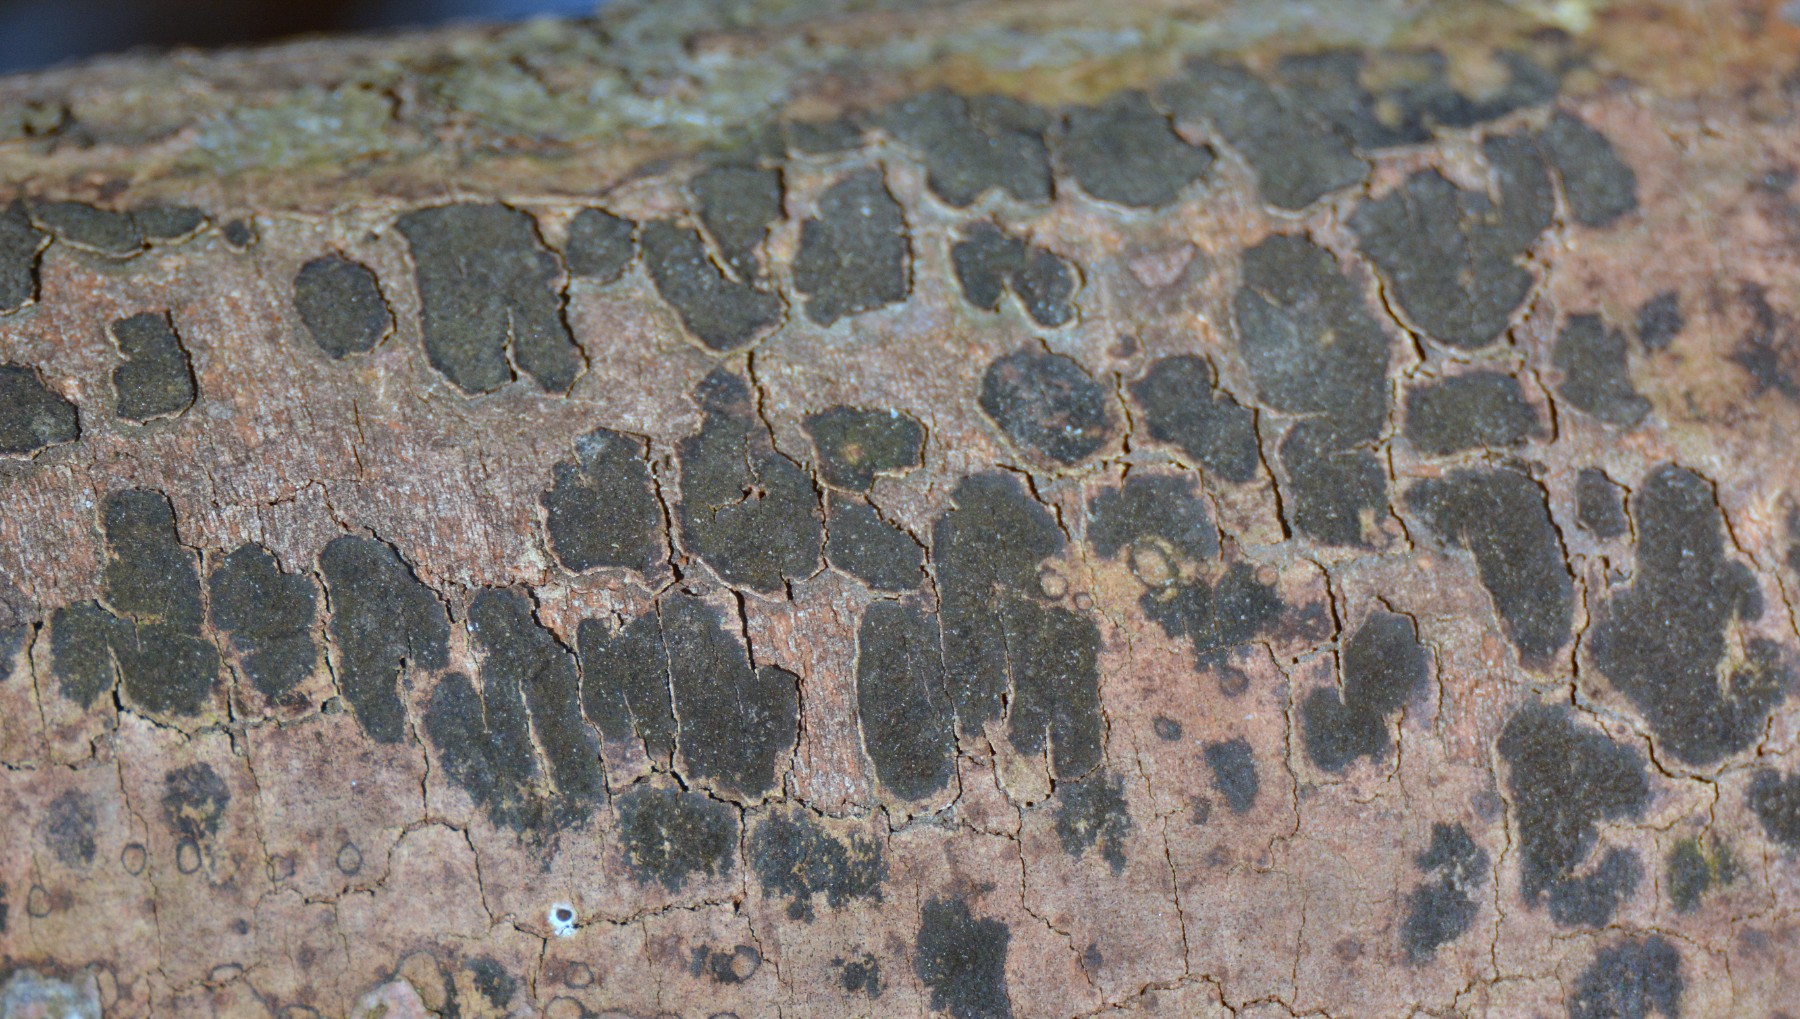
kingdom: Fungi
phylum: Ascomycota
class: Sordariomycetes
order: Xylariales
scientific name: Xylariales
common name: stødsvampordenen
